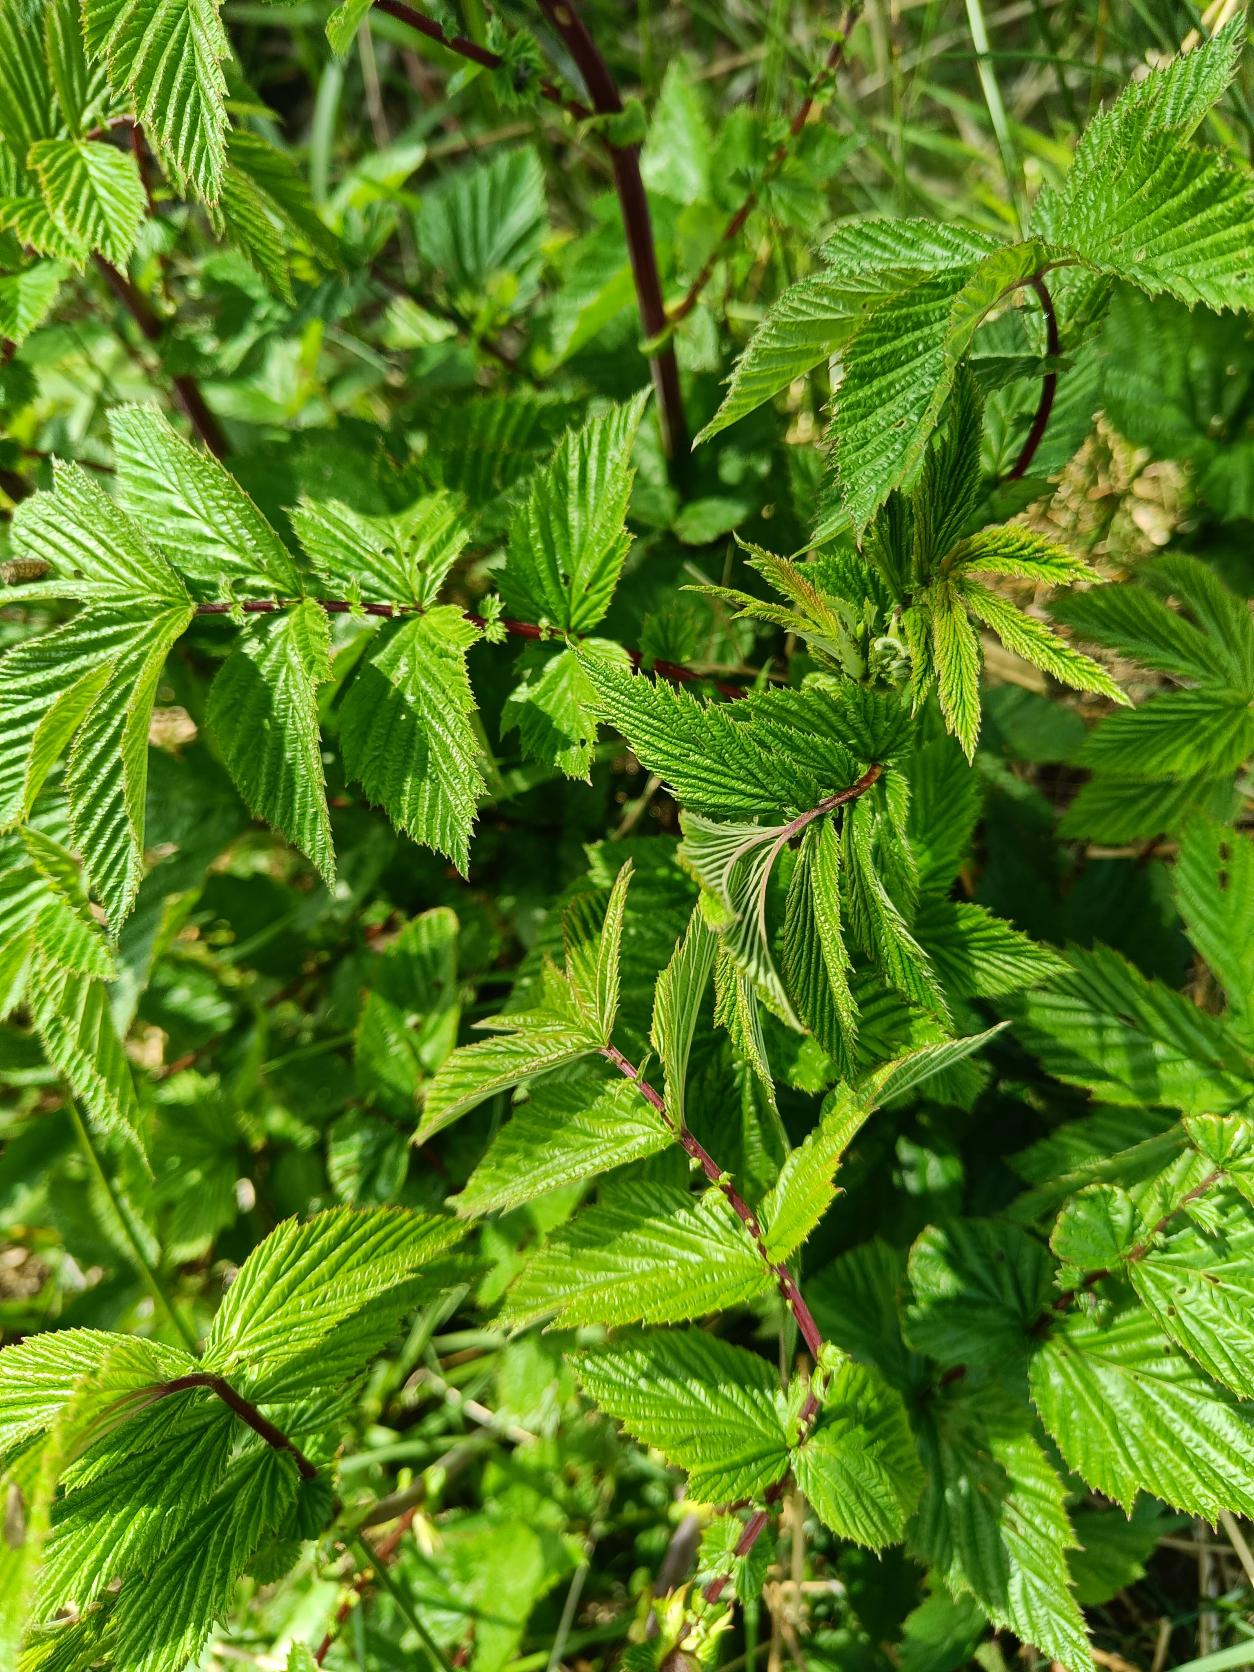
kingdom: Plantae
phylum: Tracheophyta
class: Magnoliopsida
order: Rosales
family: Rosaceae
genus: Filipendula
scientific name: Filipendula ulmaria
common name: Almindelig mjødurt
